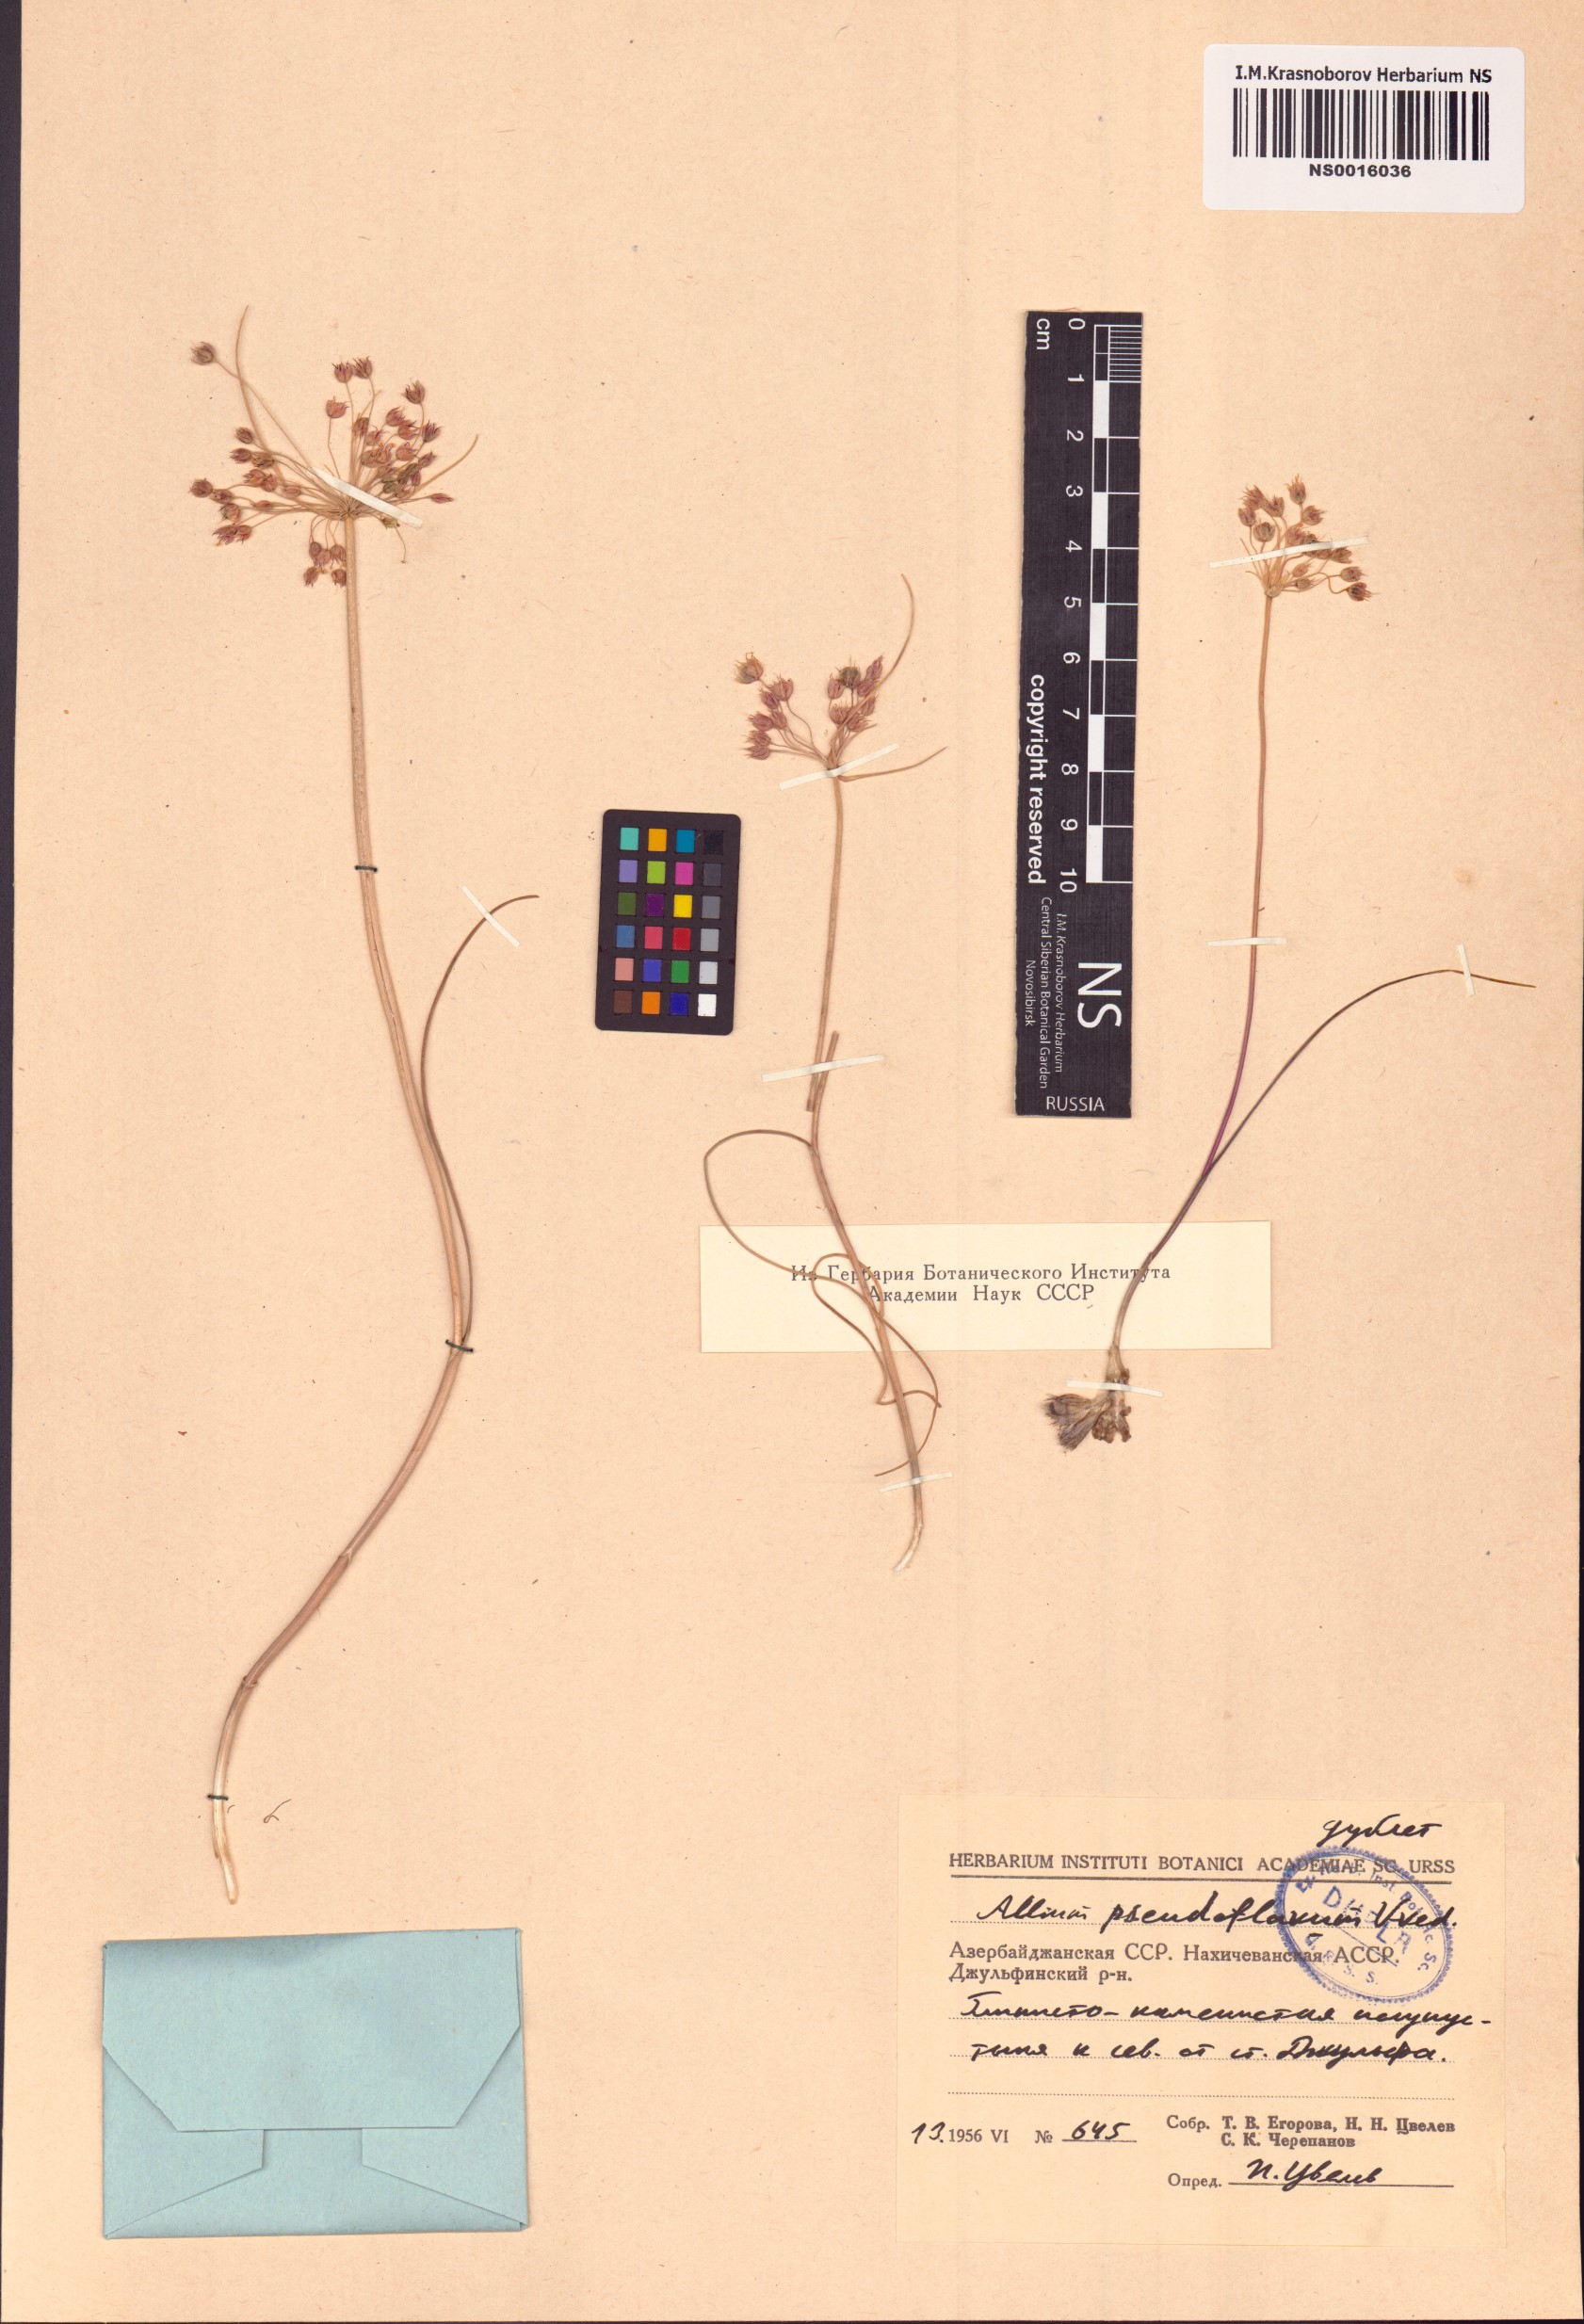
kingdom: Plantae
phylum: Tracheophyta
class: Liliopsida
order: Asparagales
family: Amaryllidaceae
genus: Allium
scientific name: Allium pseudoflavum
